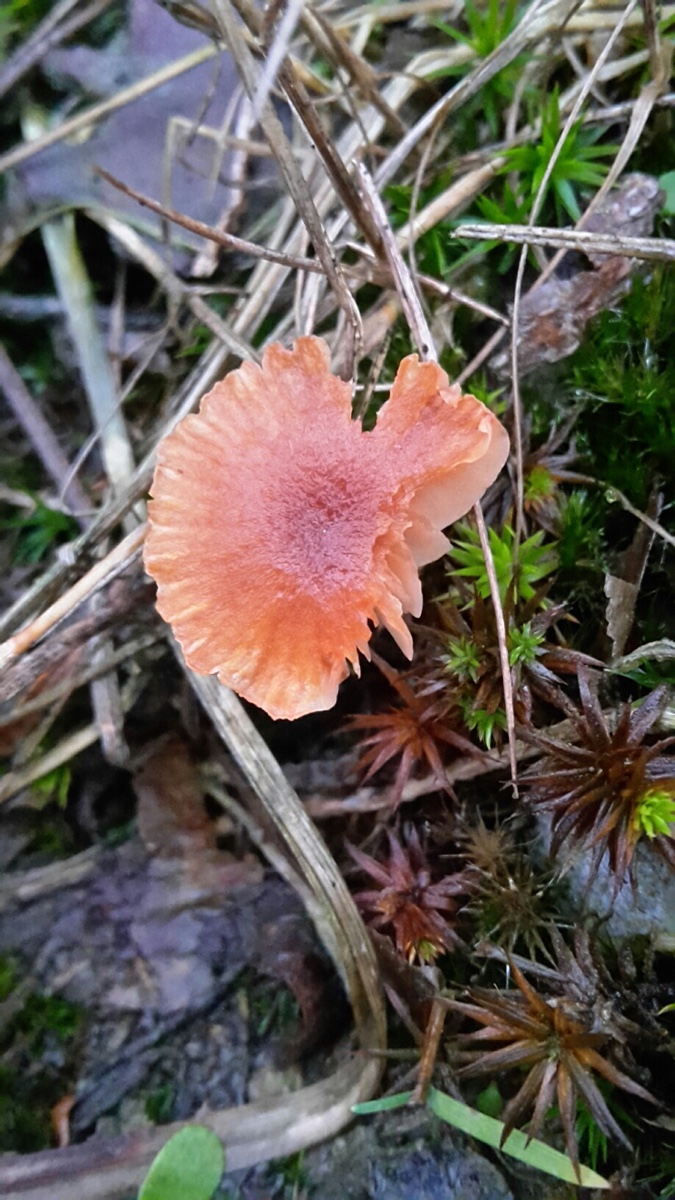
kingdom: Fungi
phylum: Basidiomycota
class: Agaricomycetes
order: Agaricales
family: Hydnangiaceae
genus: Laccaria
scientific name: Laccaria laccata
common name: rød ametysthat
